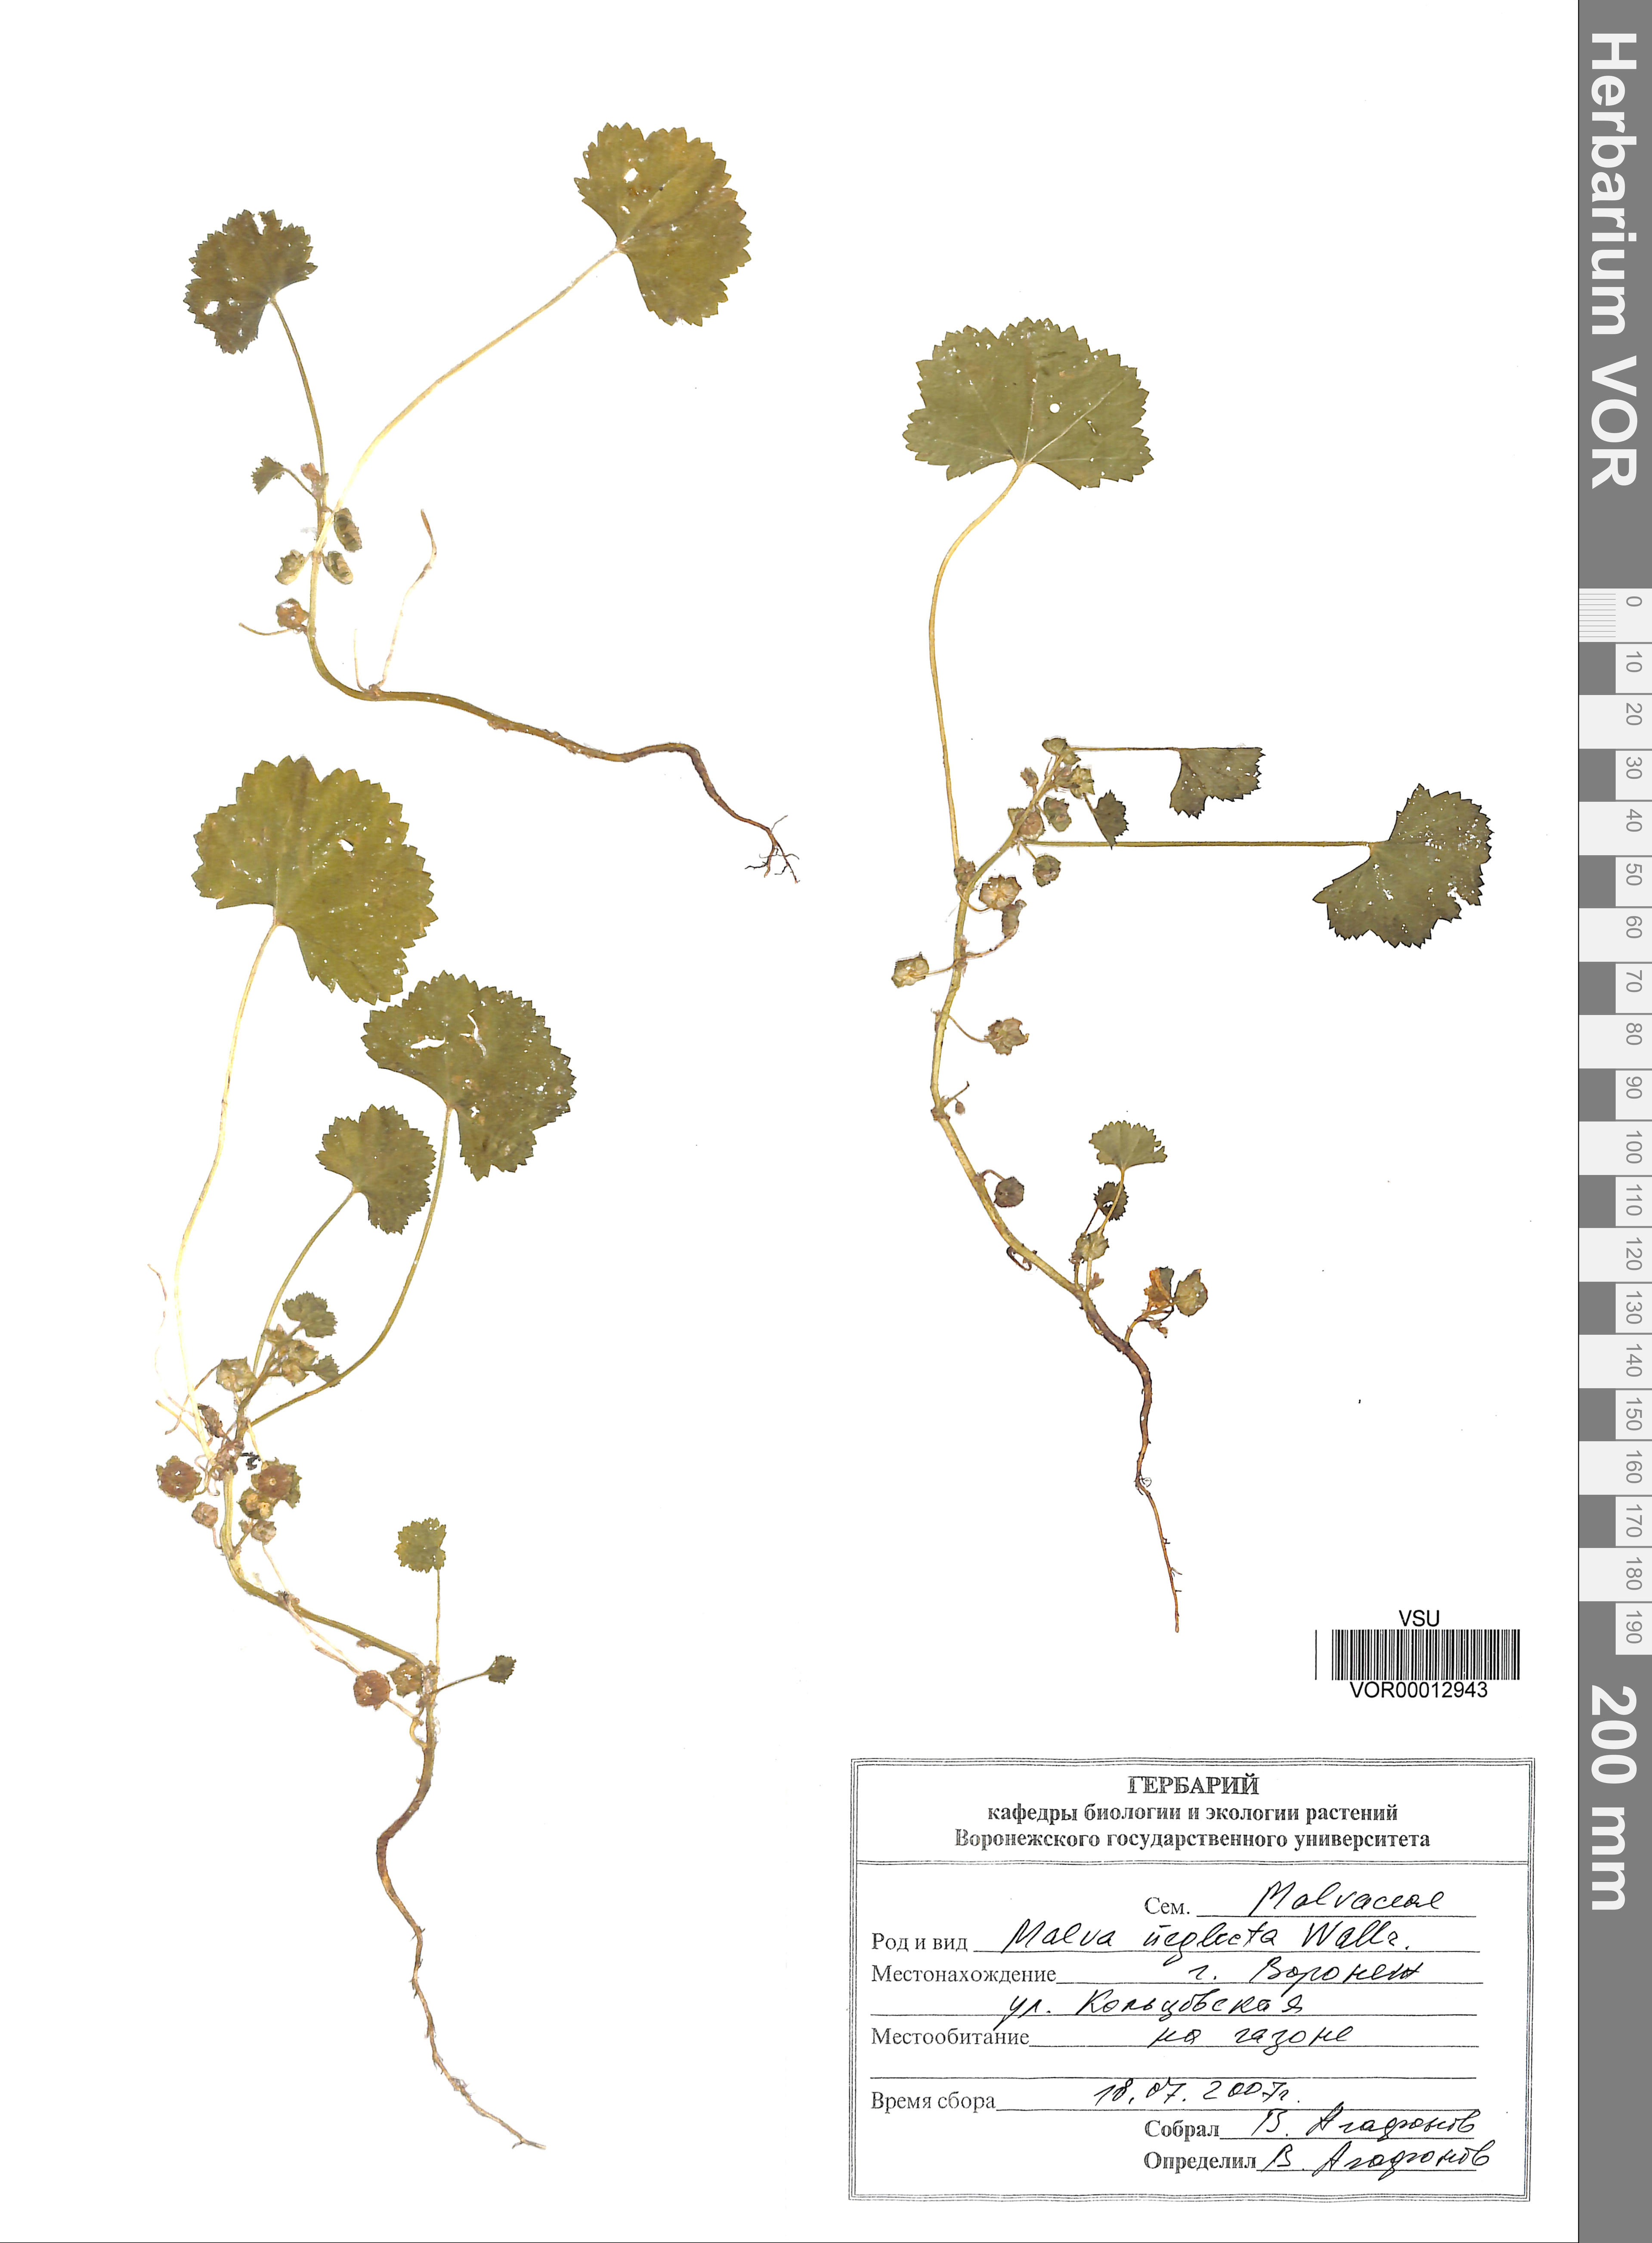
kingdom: Plantae
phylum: Tracheophyta
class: Magnoliopsida
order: Malvales
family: Malvaceae
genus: Malva
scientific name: Malva neglecta
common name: Common mallow
